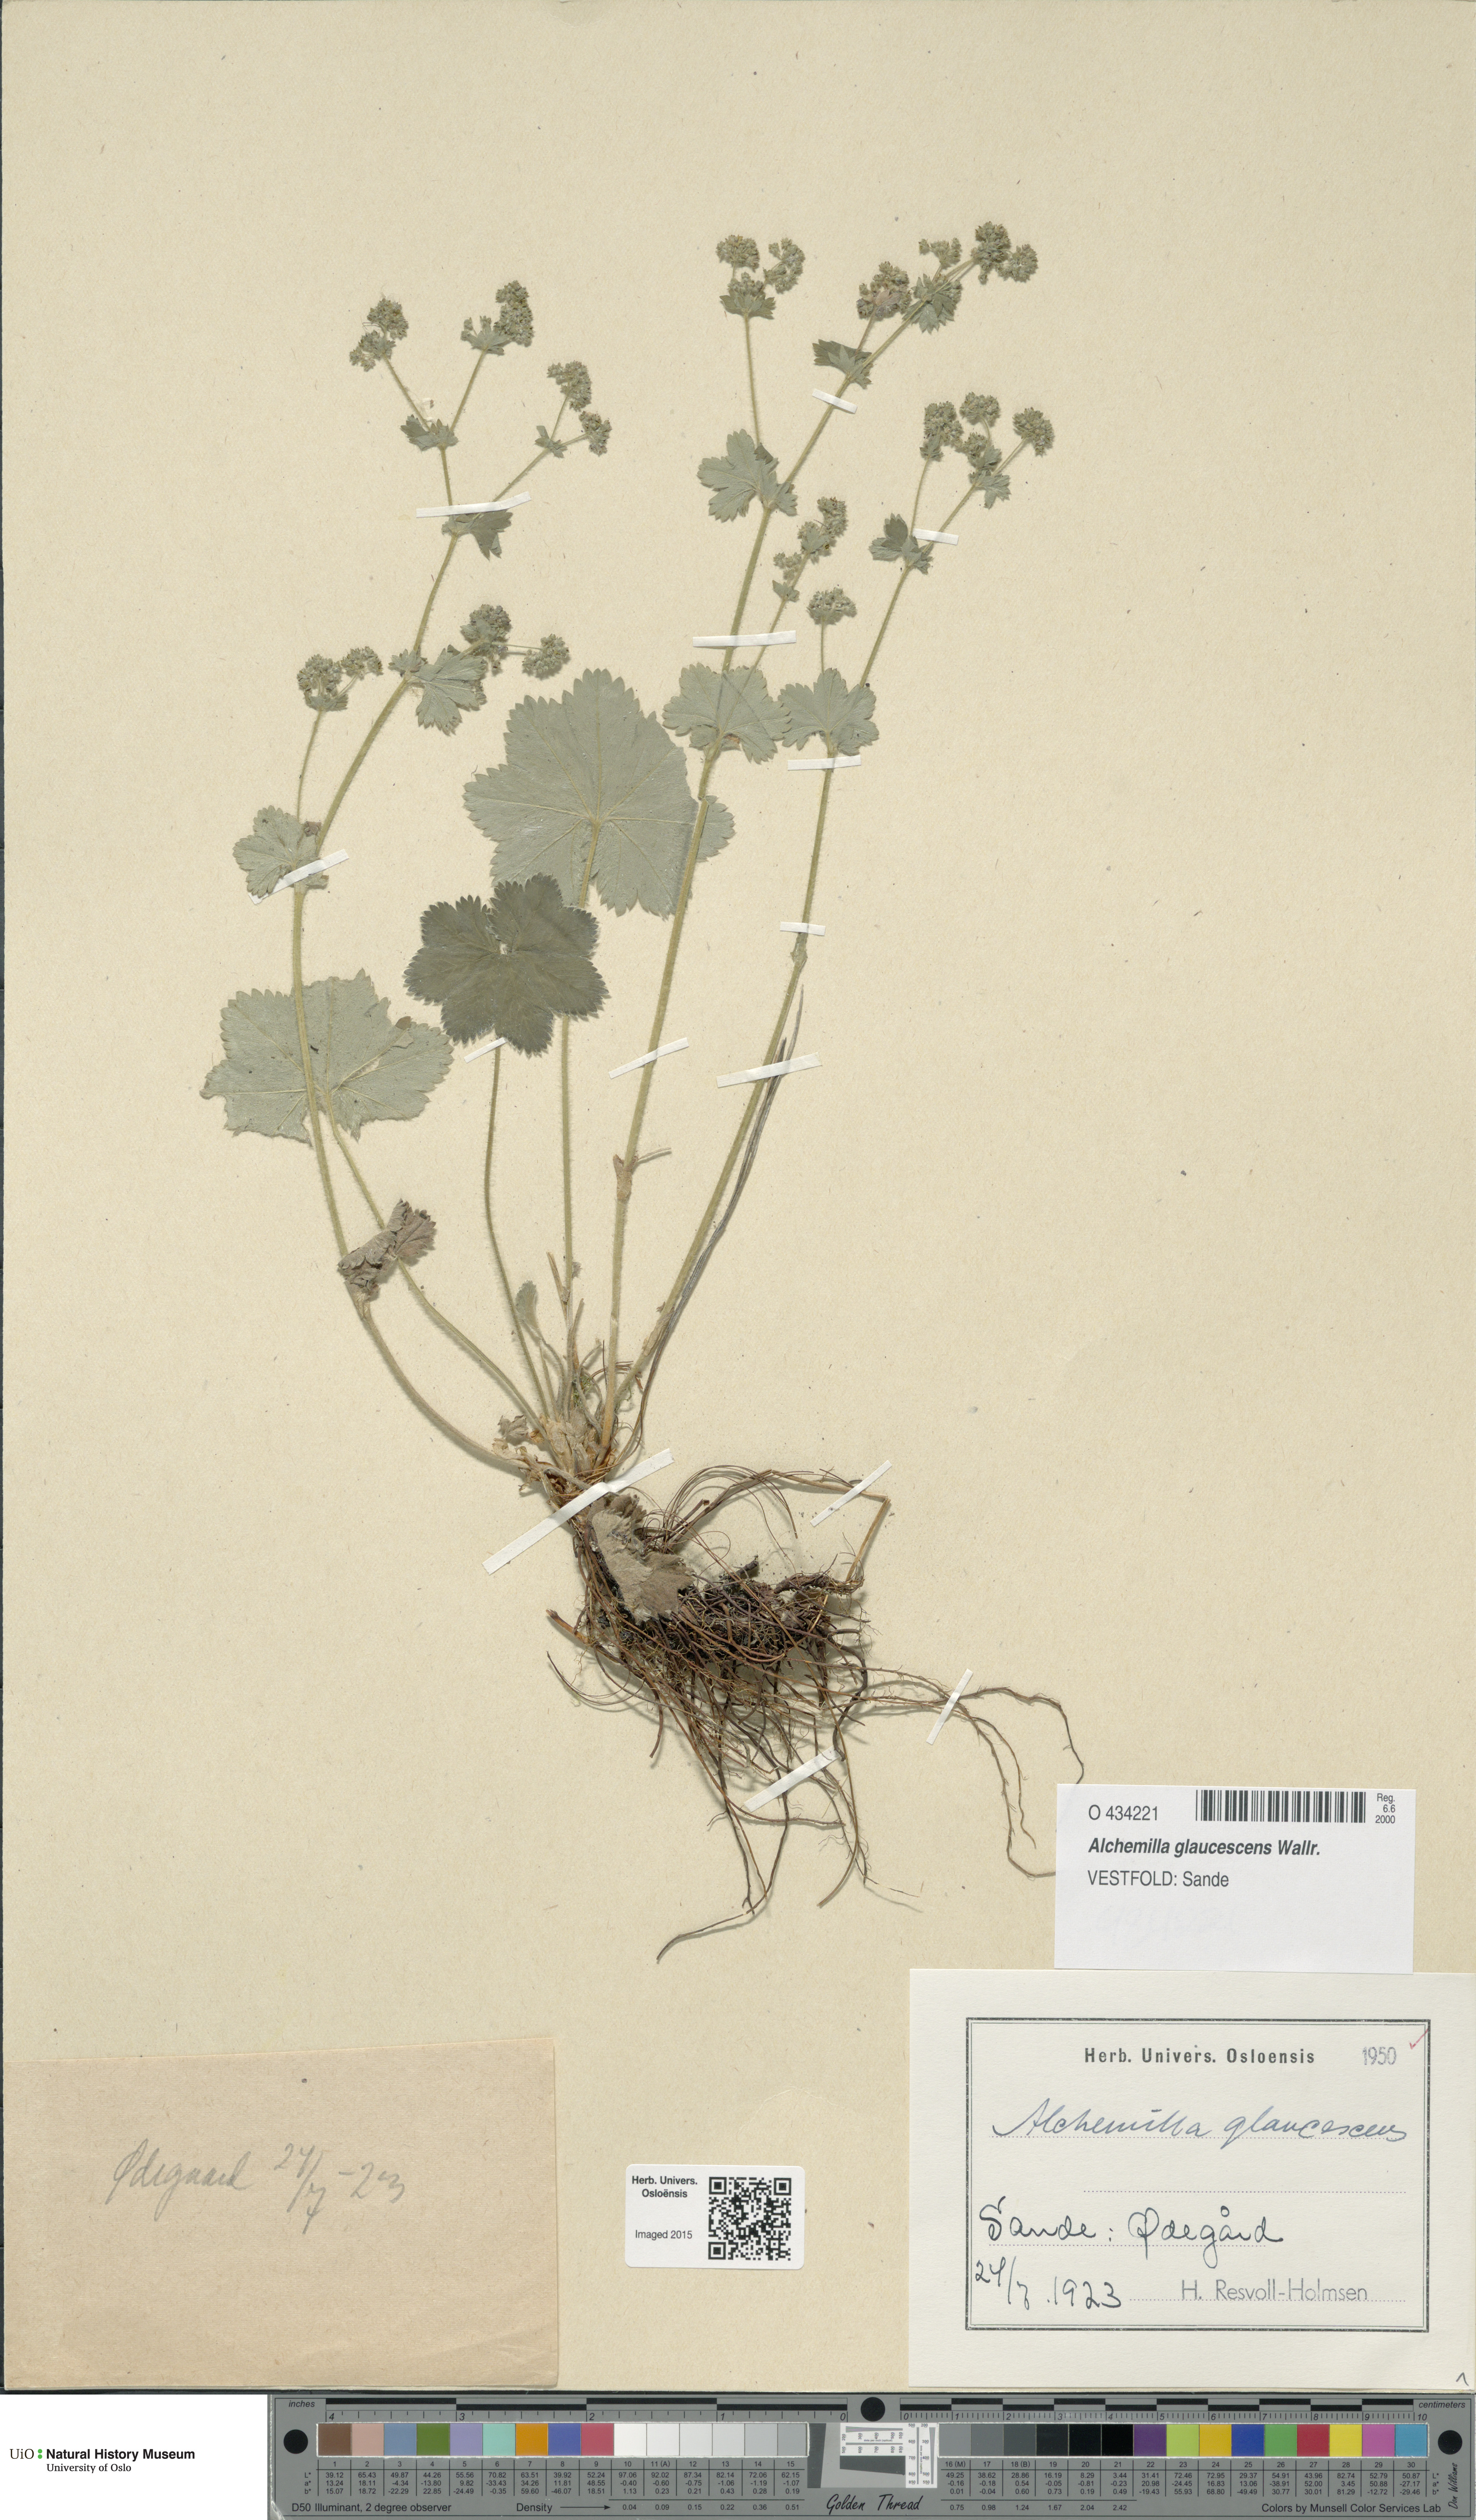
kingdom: Plantae
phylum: Tracheophyta
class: Magnoliopsida
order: Rosales
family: Rosaceae
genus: Alchemilla
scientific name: Alchemilla glaucescens
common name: Silky lady's mantle
